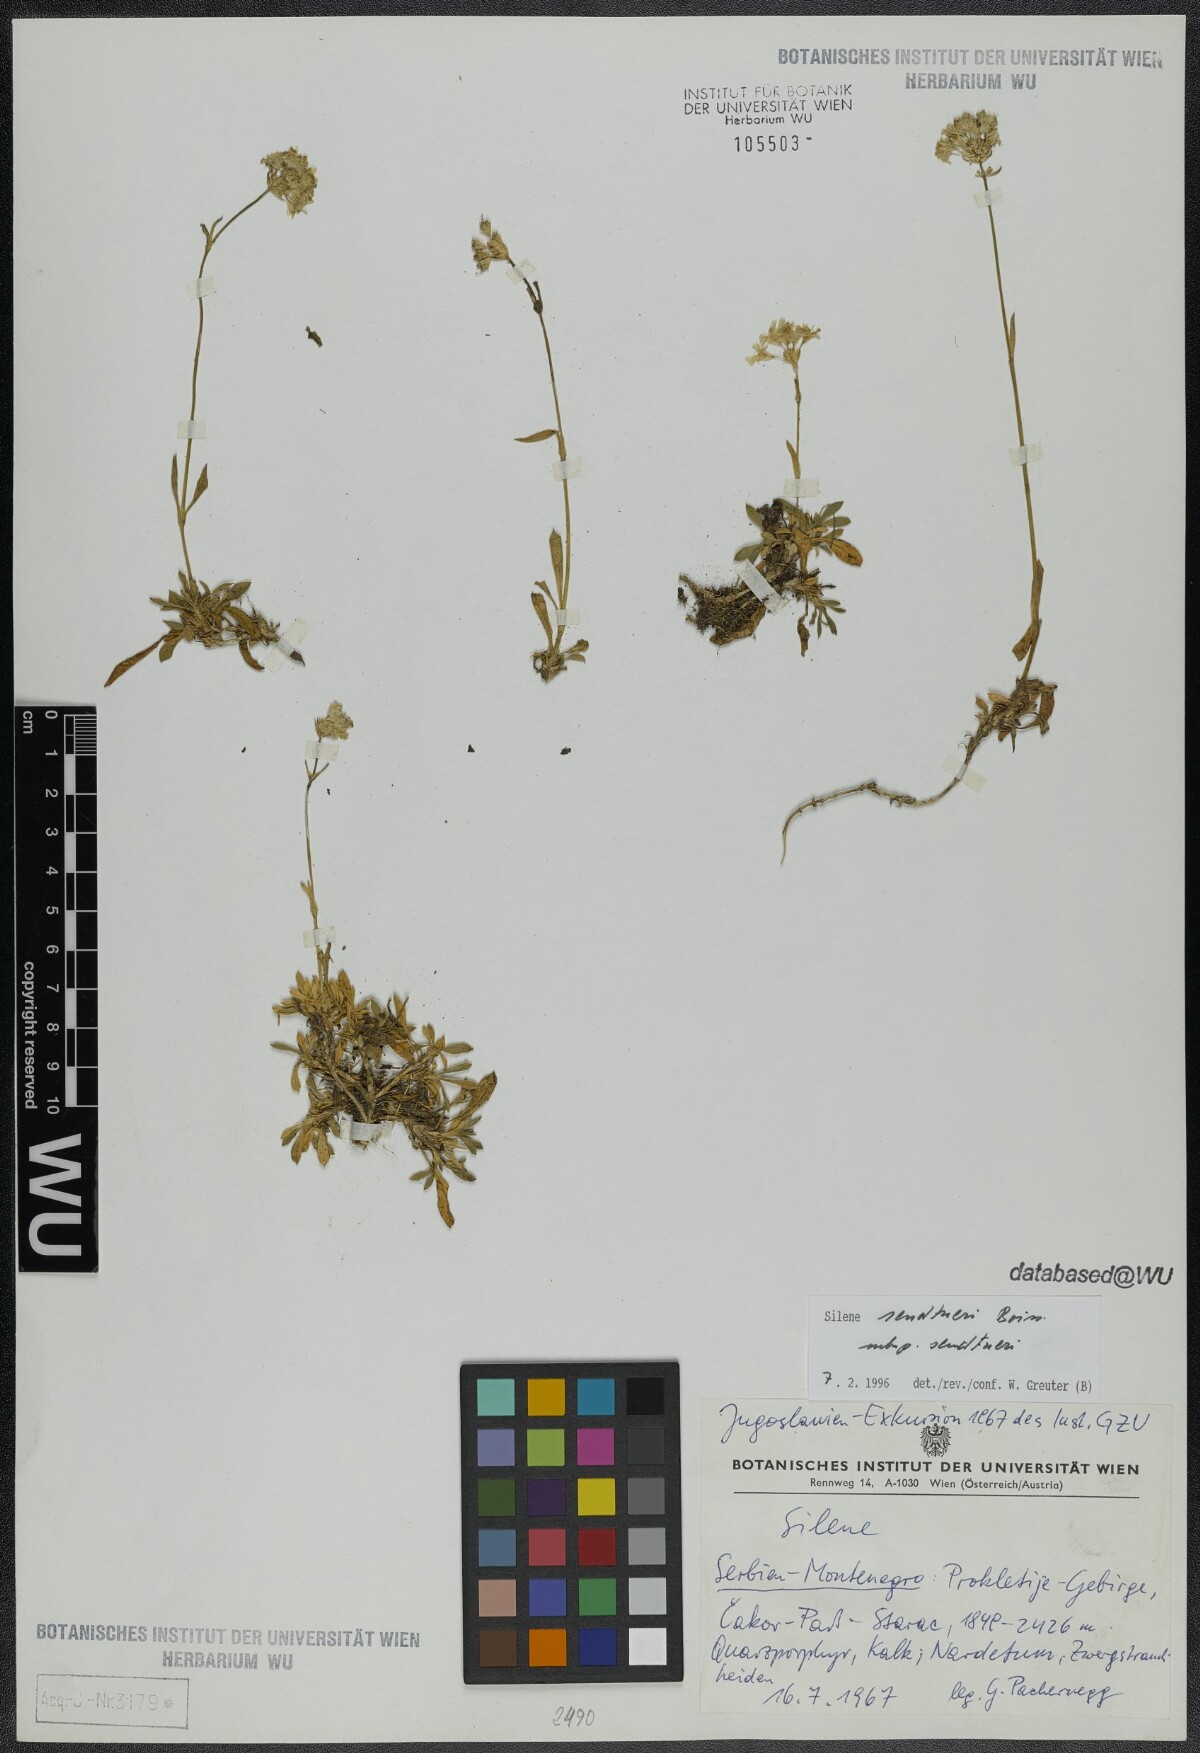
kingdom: Plantae
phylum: Tracheophyta
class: Magnoliopsida
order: Caryophyllales
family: Caryophyllaceae
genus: Silene
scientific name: Silene sendtneri
